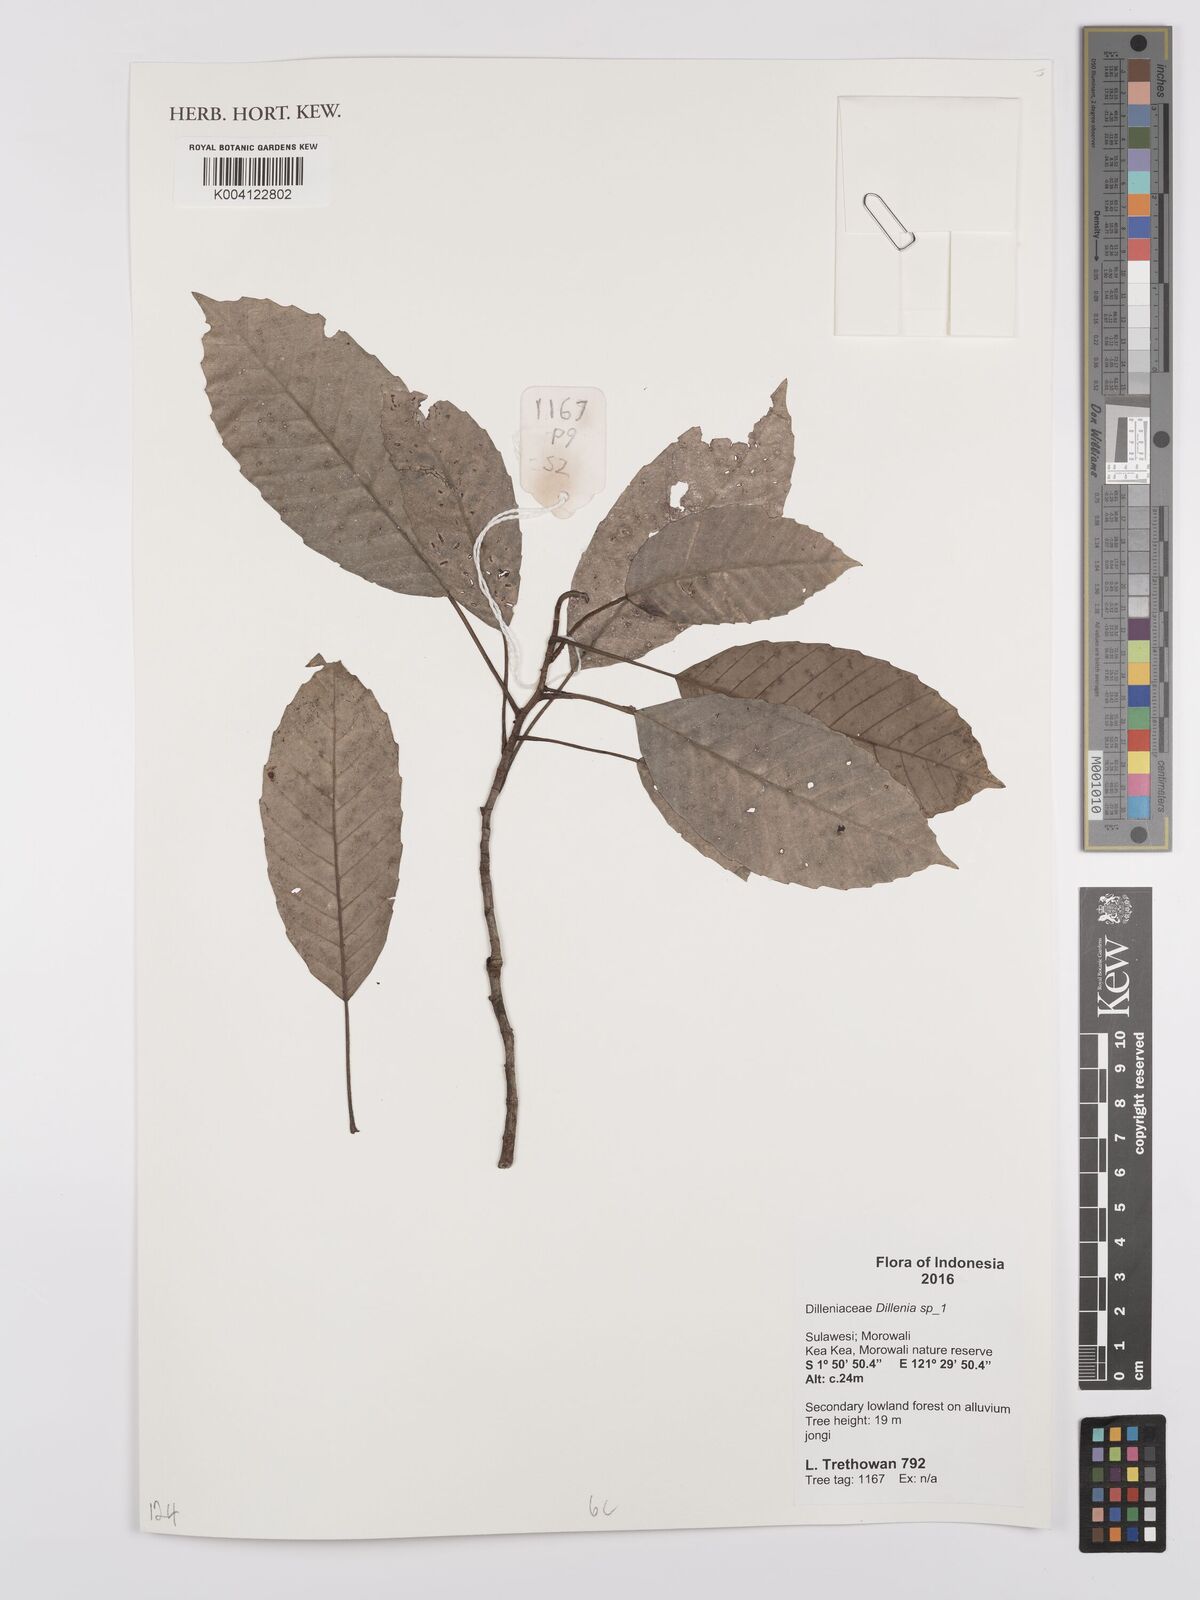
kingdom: Plantae
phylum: Tracheophyta
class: Magnoliopsida
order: Dilleniales
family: Dilleniaceae
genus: Dillenia
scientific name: Dillenia
